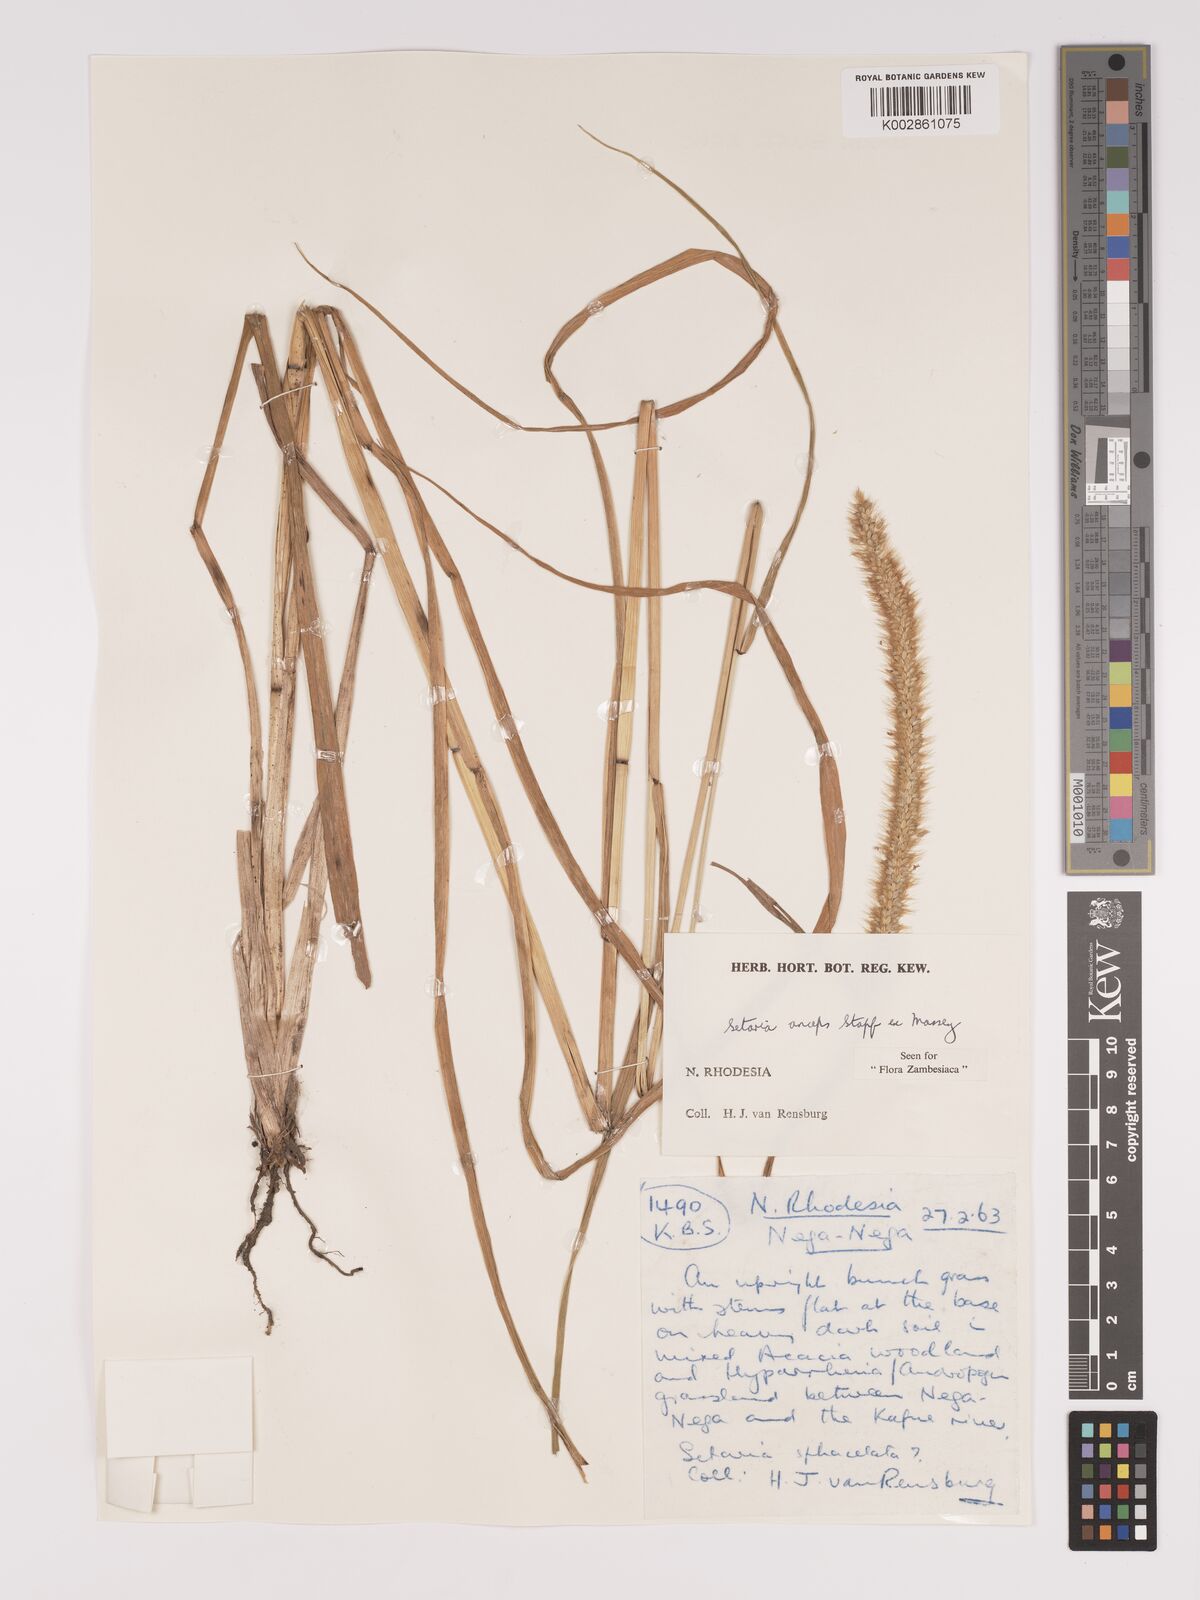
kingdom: Plantae
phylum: Tracheophyta
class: Liliopsida
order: Poales
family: Poaceae
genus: Setaria
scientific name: Setaria sphacelata
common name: African bristlegrass
